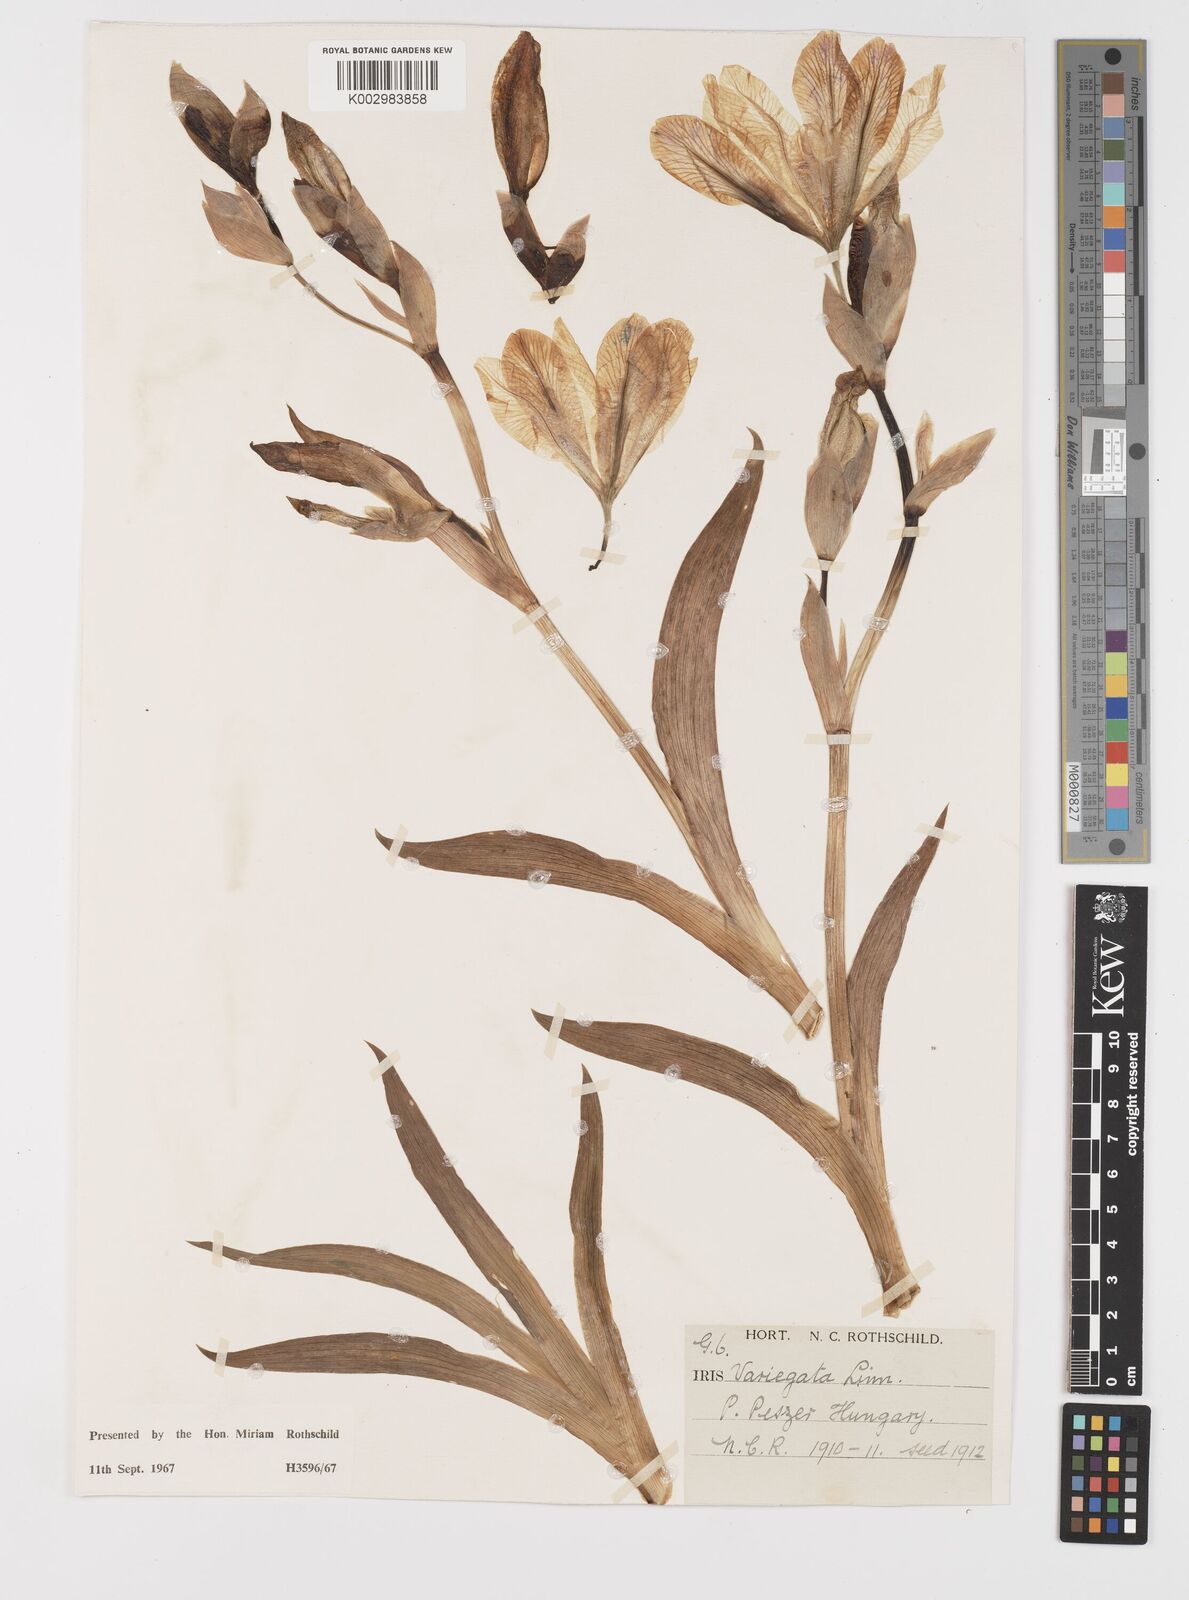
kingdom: Plantae
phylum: Tracheophyta
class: Liliopsida
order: Asparagales
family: Iridaceae
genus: Iris
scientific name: Iris variegata
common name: Hungarian iris
